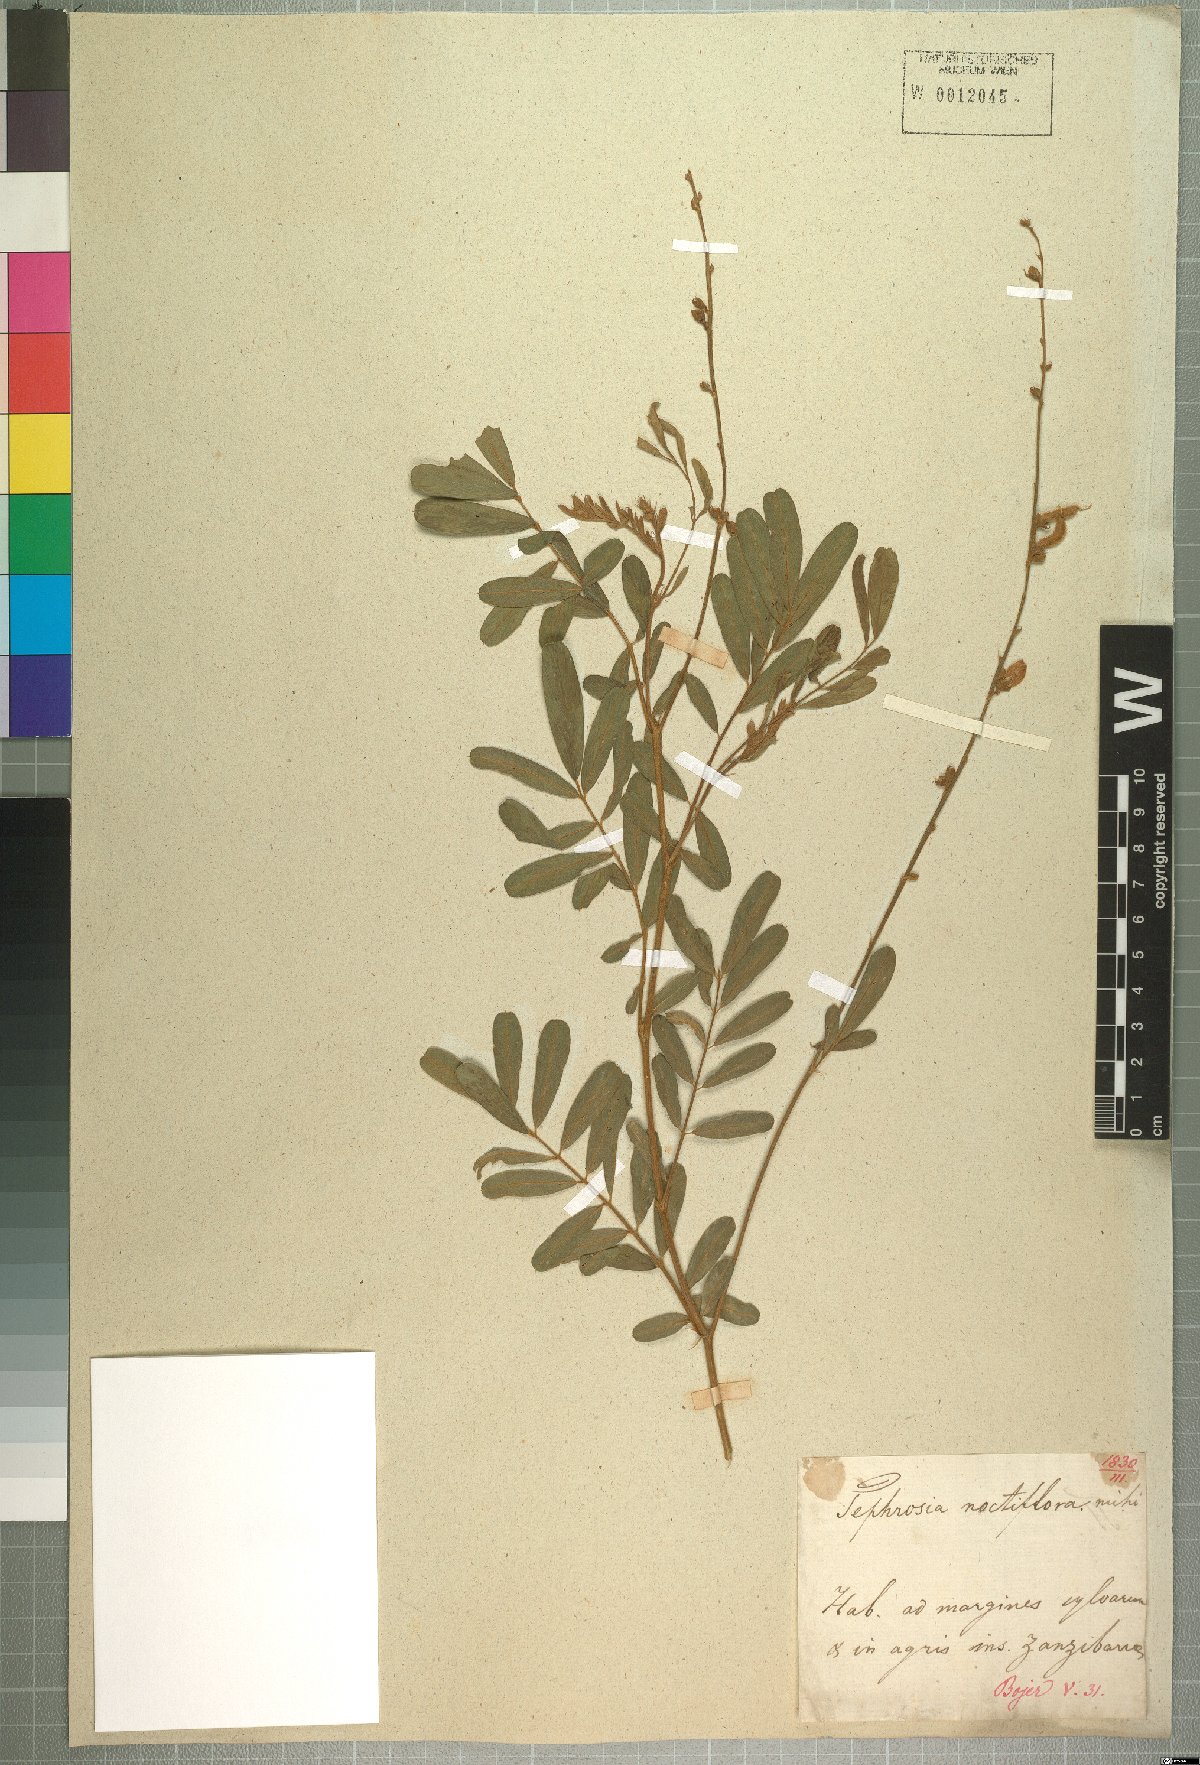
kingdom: Plantae
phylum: Tracheophyta
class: Magnoliopsida
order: Fabales
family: Fabaceae
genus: Tephrosia
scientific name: Tephrosia noctiflora
